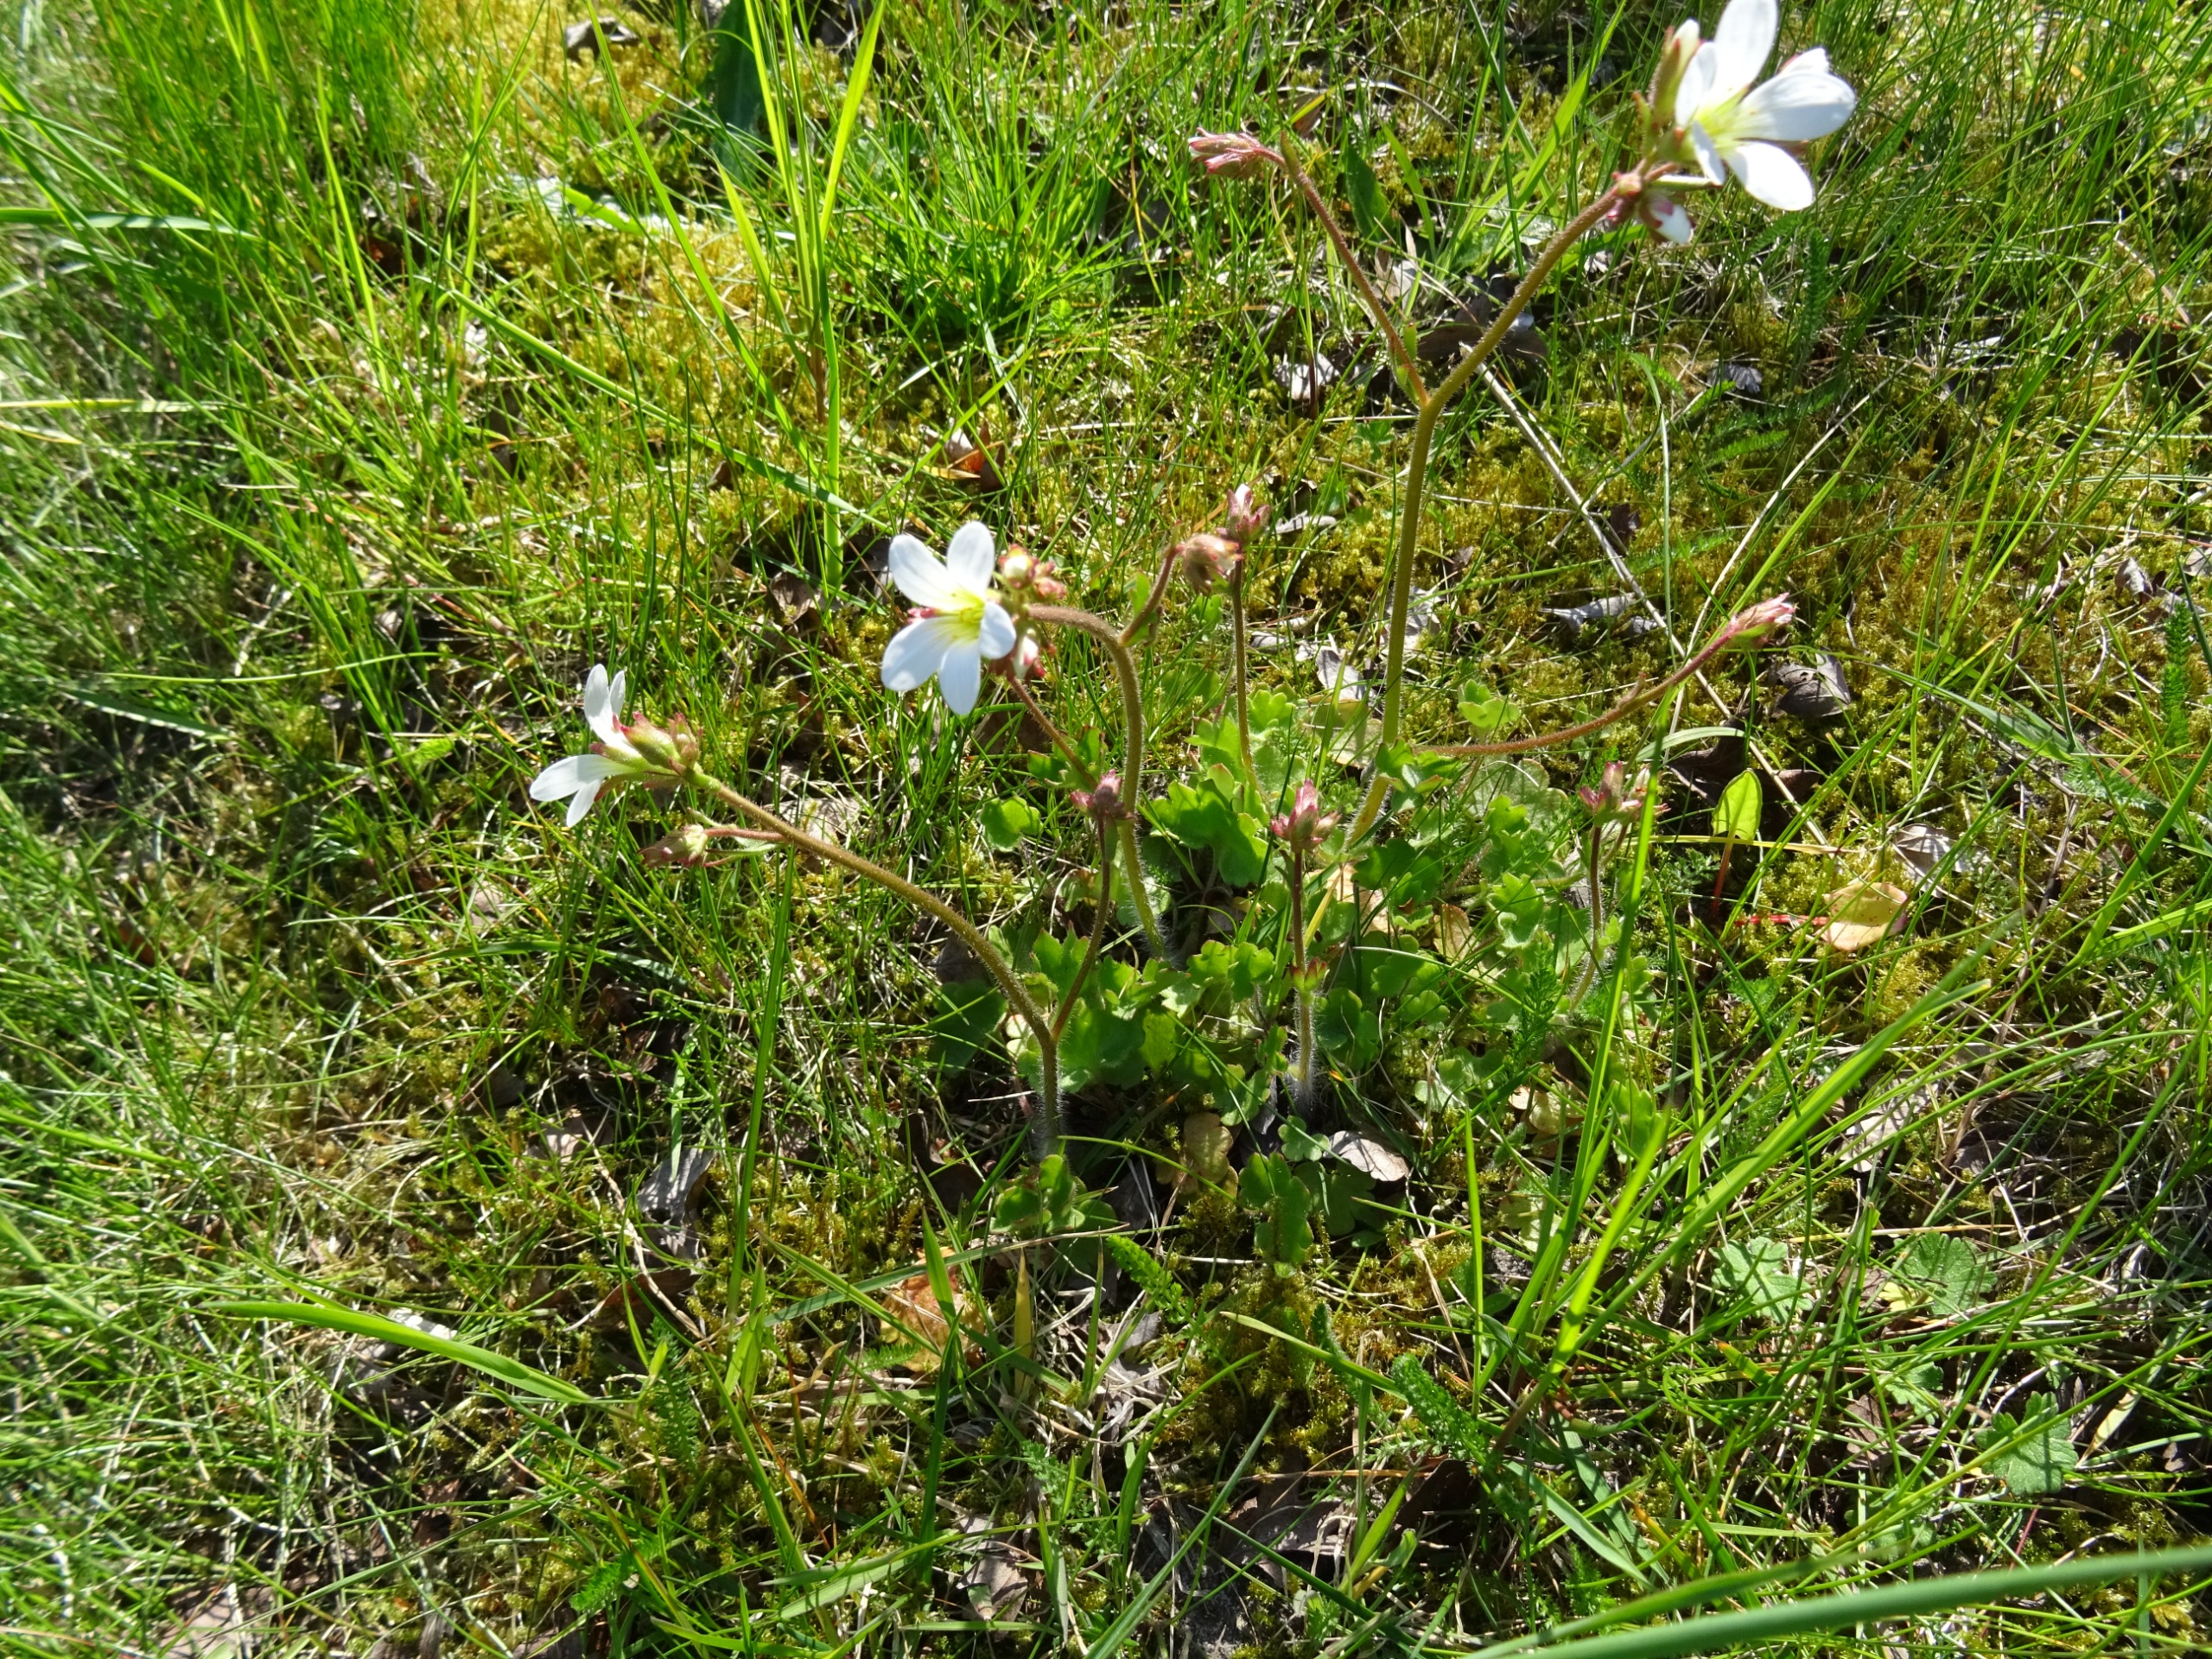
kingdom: Plantae
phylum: Tracheophyta
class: Magnoliopsida
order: Saxifragales
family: Saxifragaceae
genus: Saxifraga
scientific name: Saxifraga granulata
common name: Kornet stenbræk
